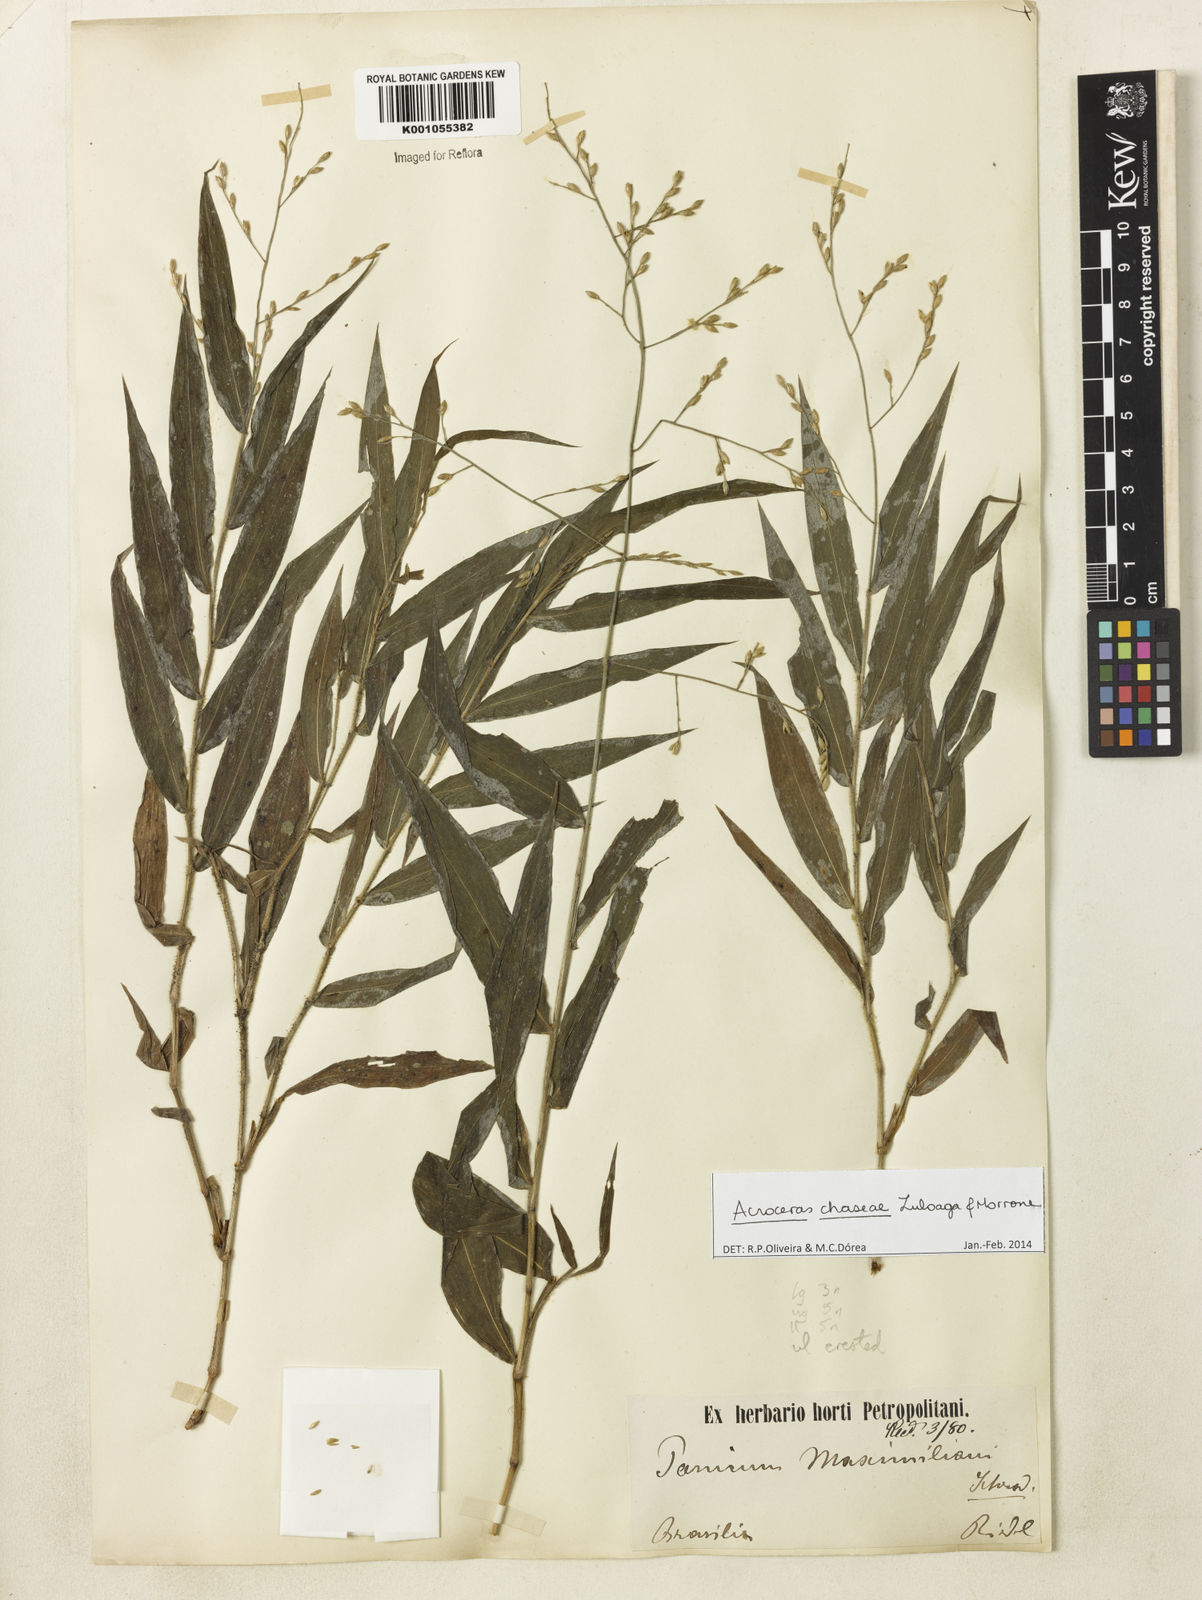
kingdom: Plantae
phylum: Tracheophyta
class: Liliopsida
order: Poales
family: Poaceae
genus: Acroceras
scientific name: Acroceras chaseae
